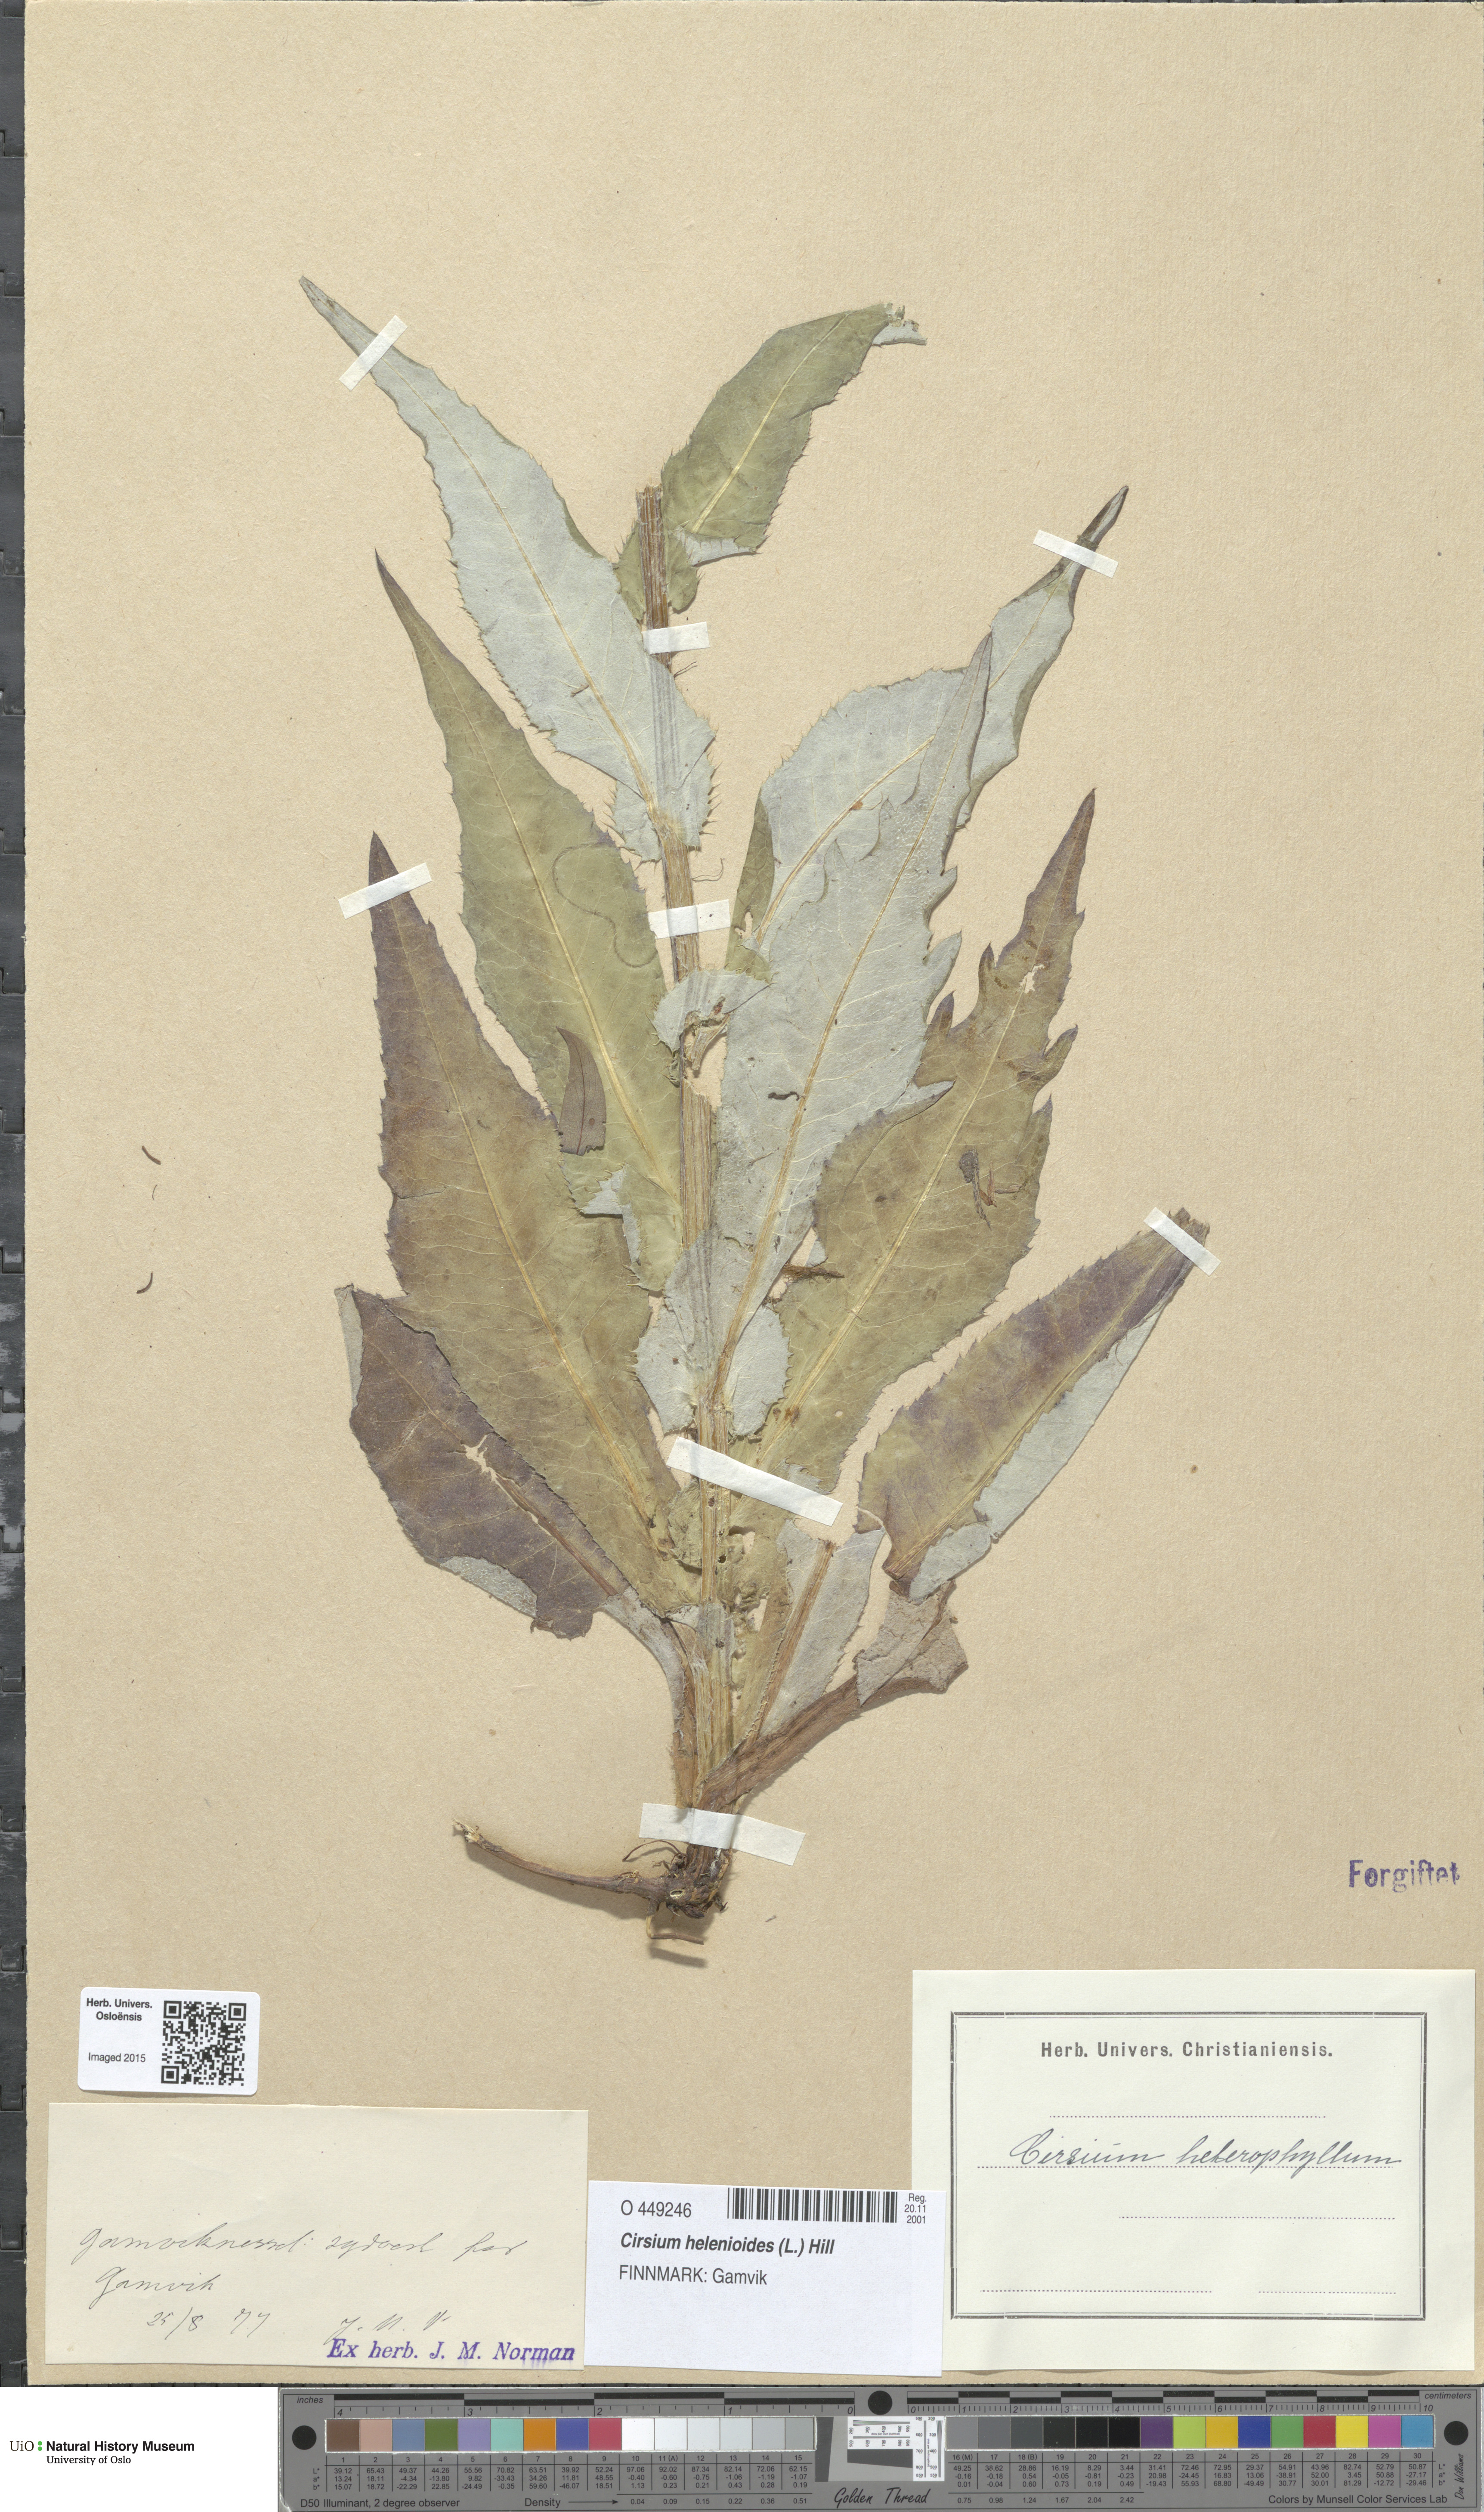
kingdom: Plantae
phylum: Tracheophyta
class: Magnoliopsida
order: Asterales
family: Asteraceae
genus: Cirsium
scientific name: Cirsium heterophyllum
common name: Melancholy thistle
